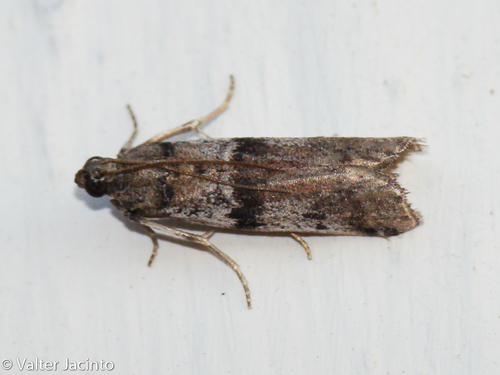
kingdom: Animalia
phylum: Arthropoda
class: Insecta
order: Lepidoptera
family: Pyralidae
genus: Ephestia
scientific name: Ephestia welseriella
